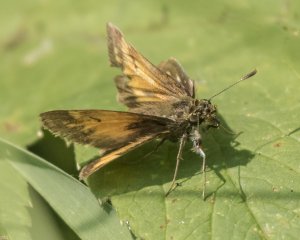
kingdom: Animalia
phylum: Arthropoda
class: Insecta
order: Lepidoptera
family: Hesperiidae
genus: Lon
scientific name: Lon hobomok
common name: Hobomok Skipper
